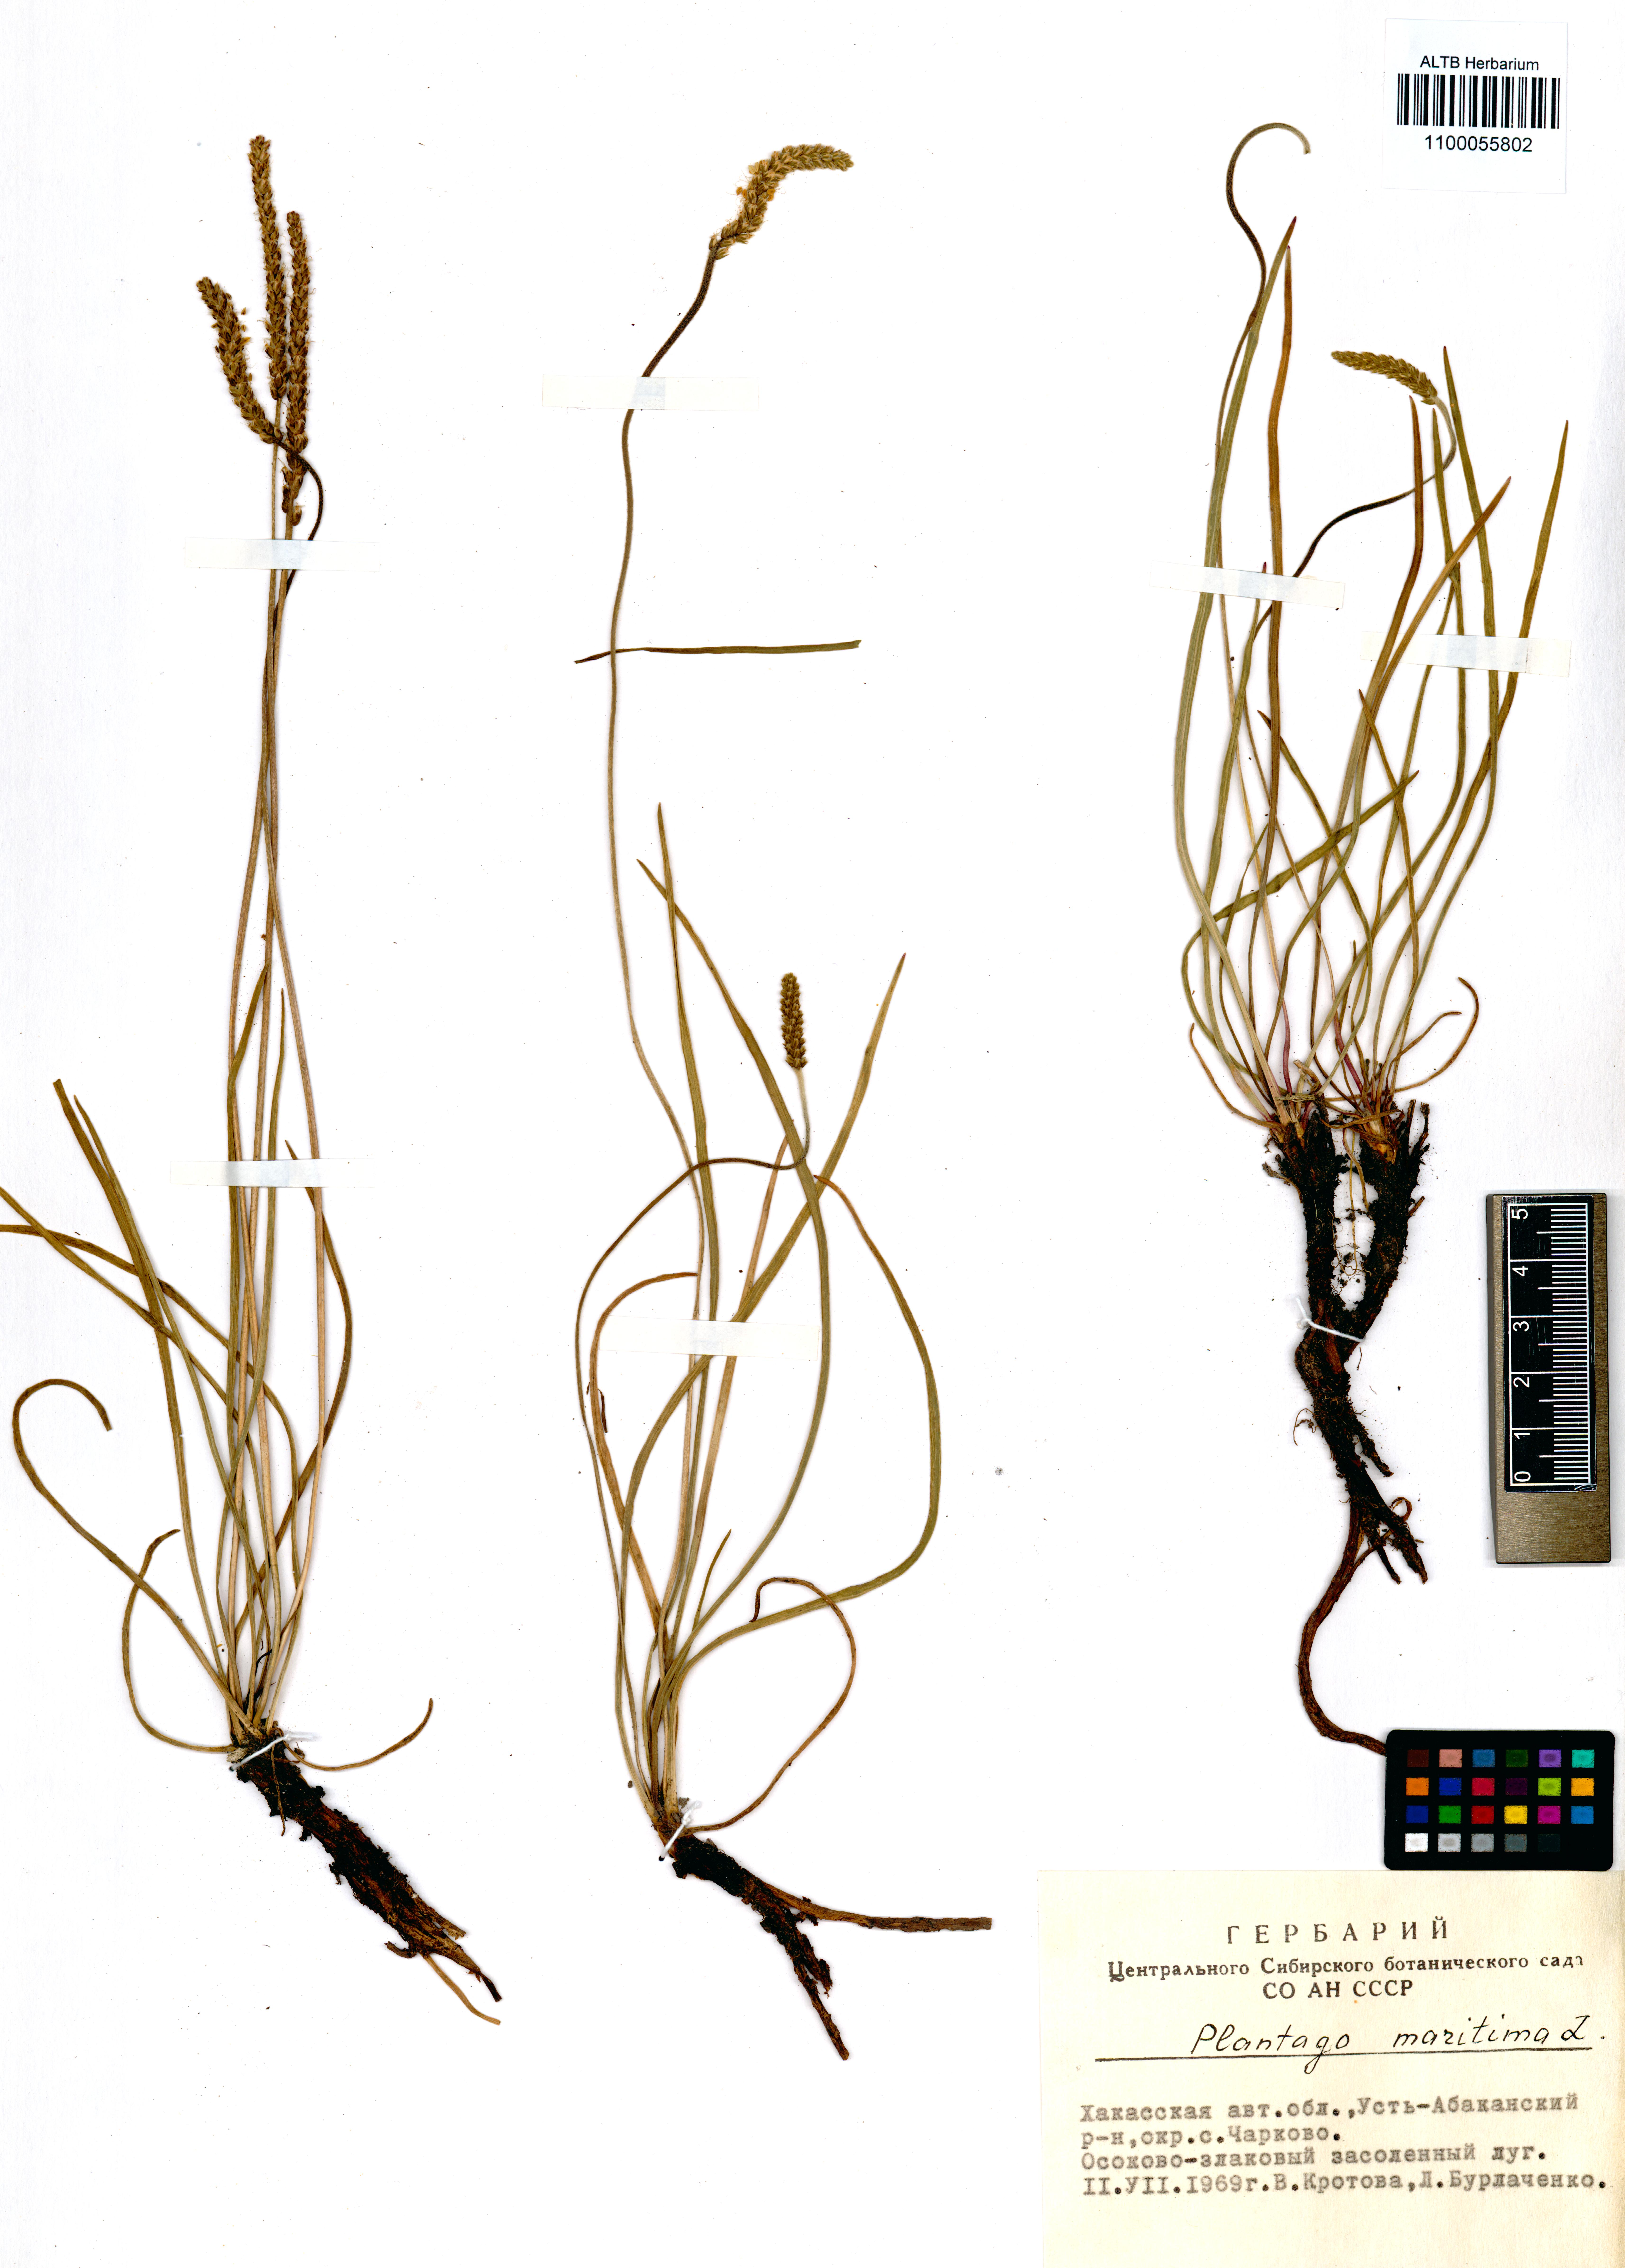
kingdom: Plantae
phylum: Tracheophyta
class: Magnoliopsida
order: Lamiales
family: Plantaginaceae
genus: Plantago
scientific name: Plantago maritima
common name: Sea plantain
